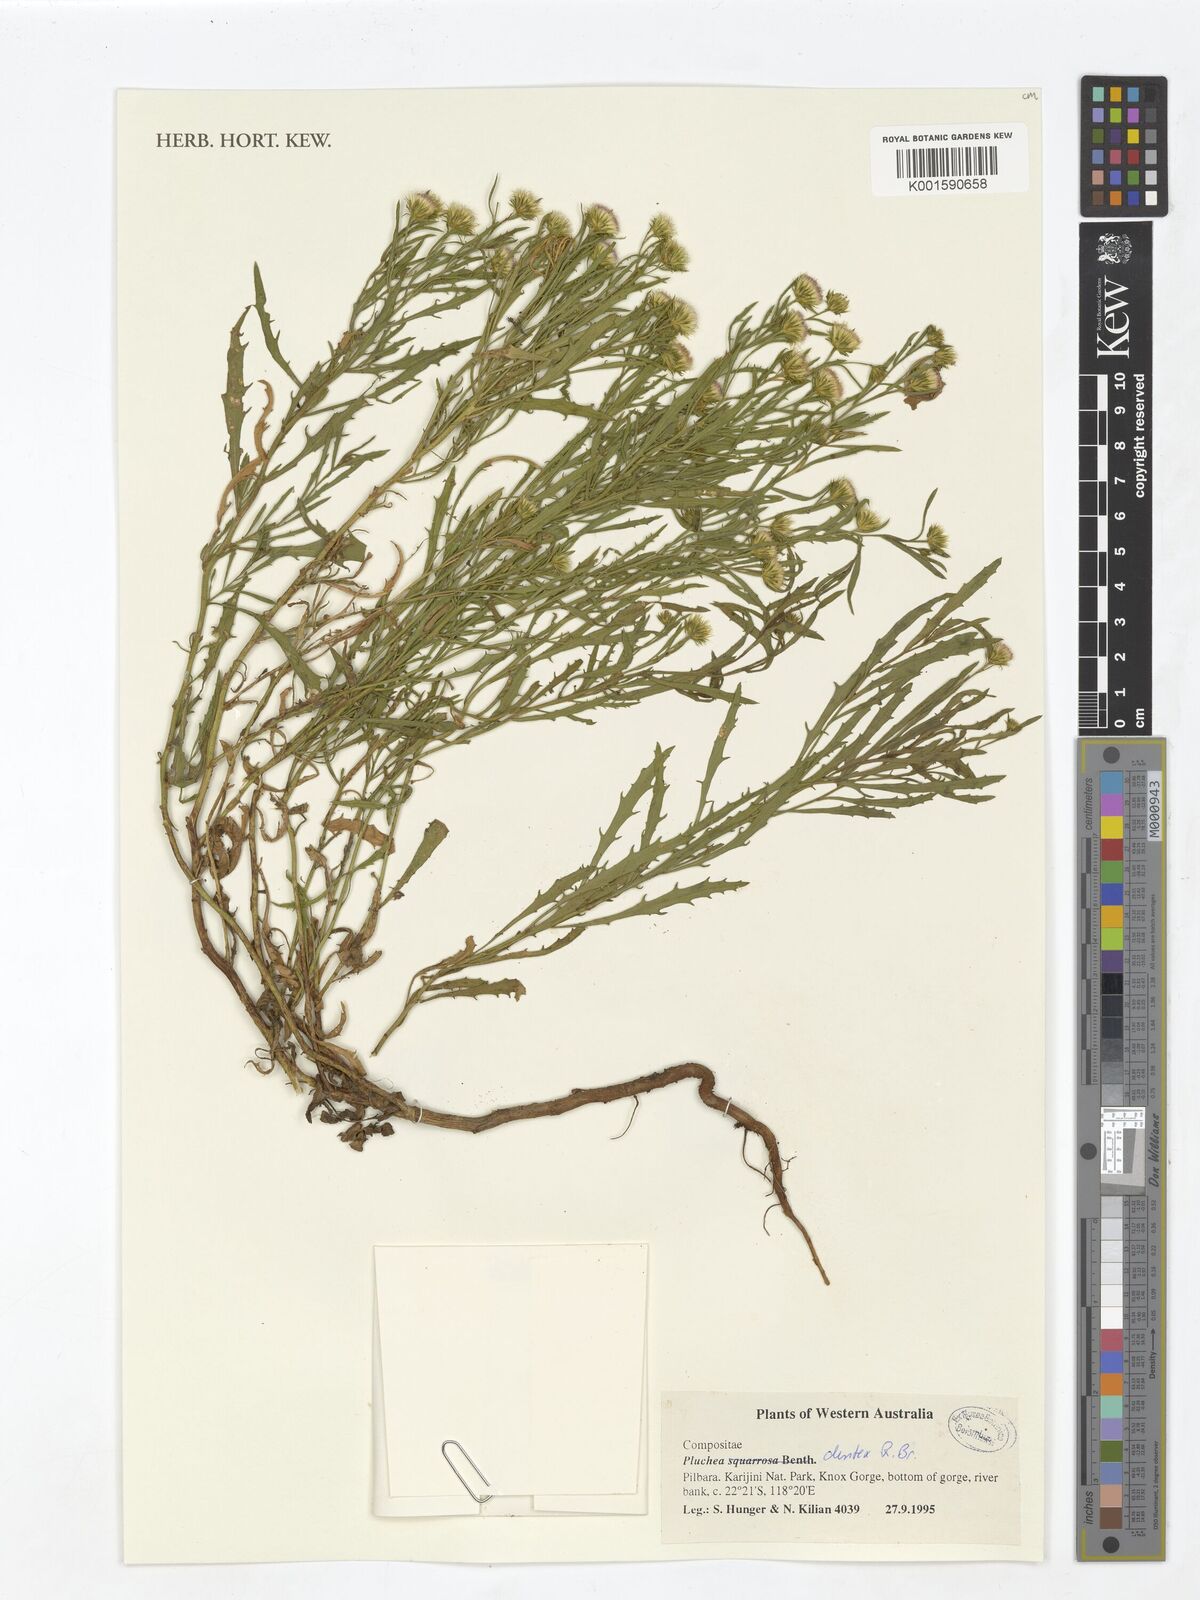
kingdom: Plantae
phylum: Tracheophyta
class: Magnoliopsida
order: Asterales
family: Asteraceae
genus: Pluchea
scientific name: Pluchea dentex
